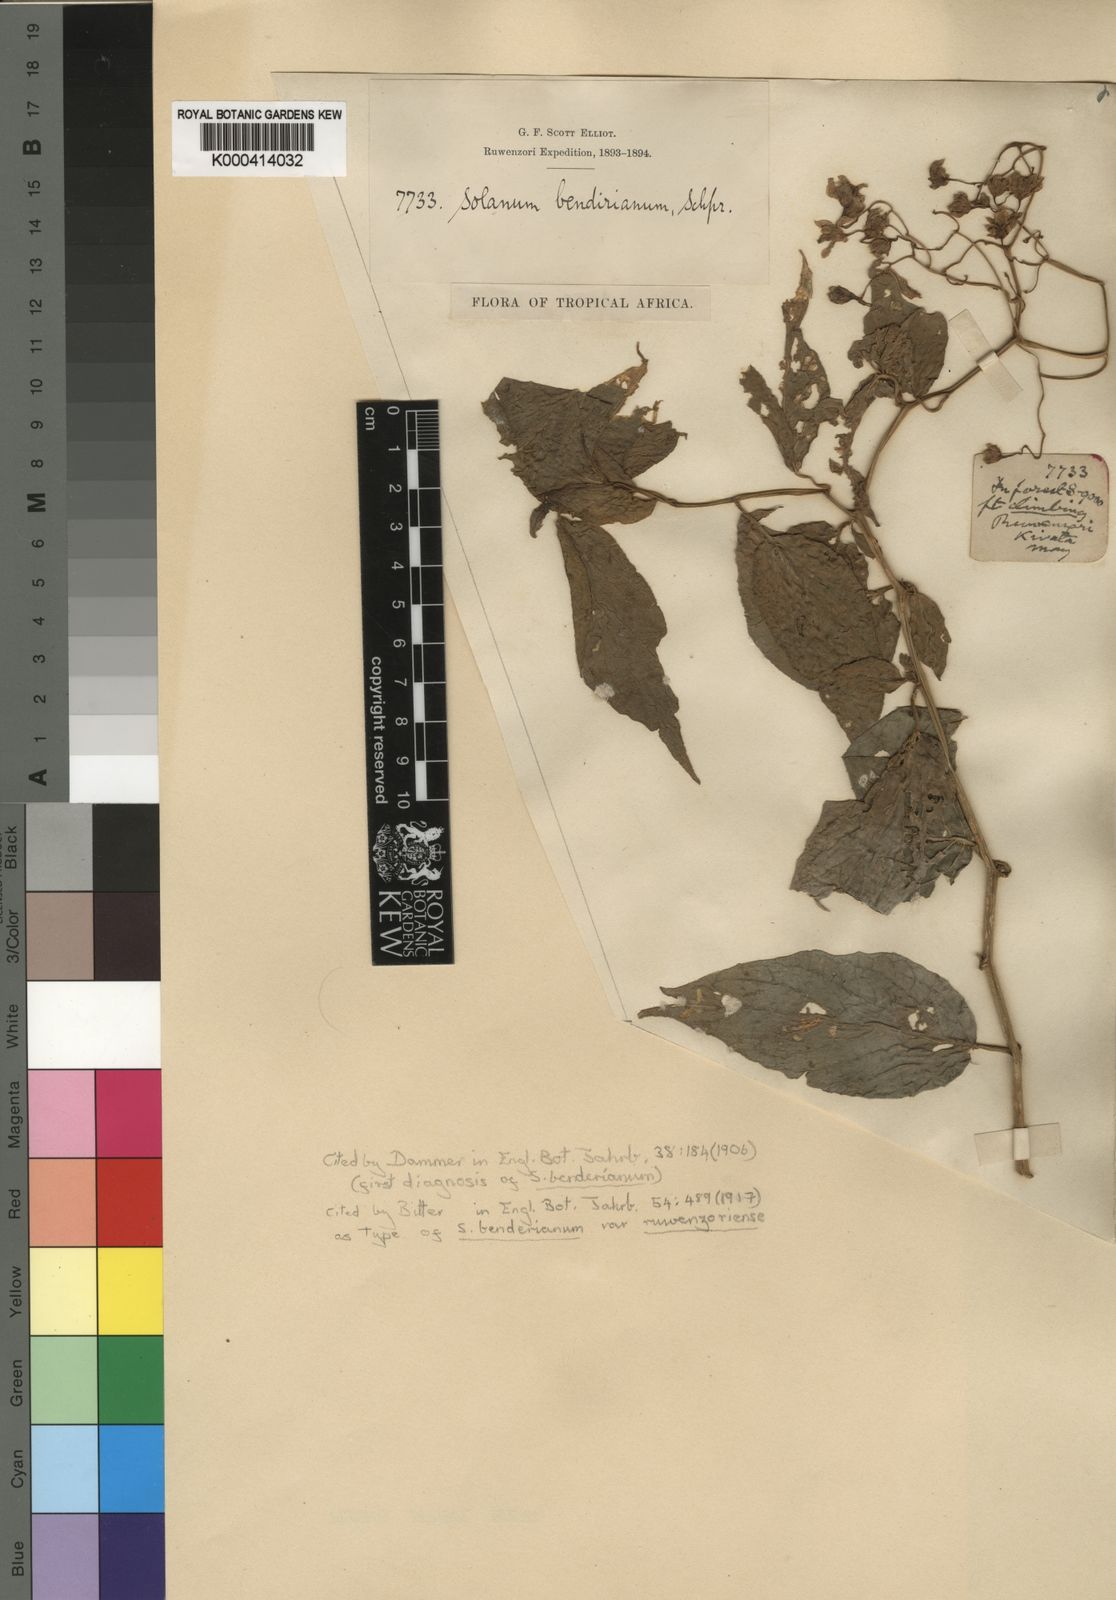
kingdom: Plantae
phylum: Tracheophyta
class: Magnoliopsida
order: Solanales
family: Solanaceae
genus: Solanum
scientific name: Solanum runsoriense
